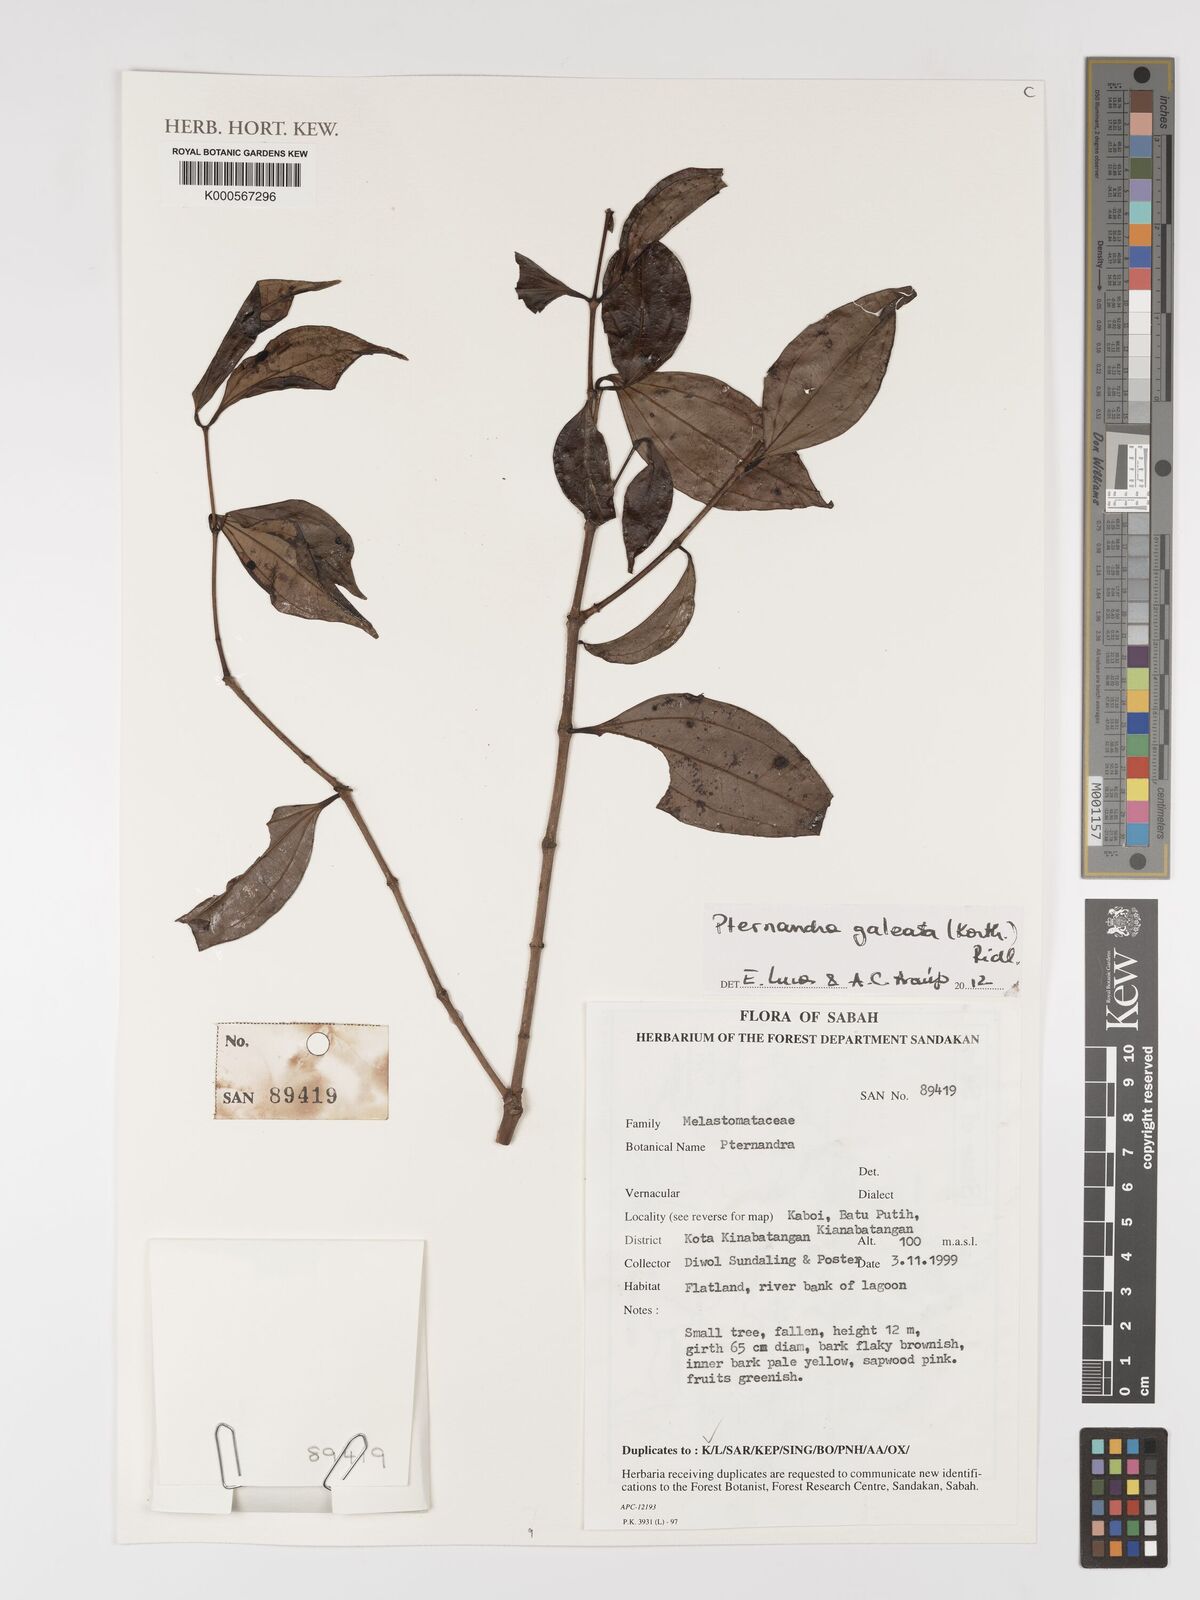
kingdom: Plantae
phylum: Tracheophyta
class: Magnoliopsida
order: Myrtales
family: Melastomataceae
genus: Pternandra
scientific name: Pternandra galeata
